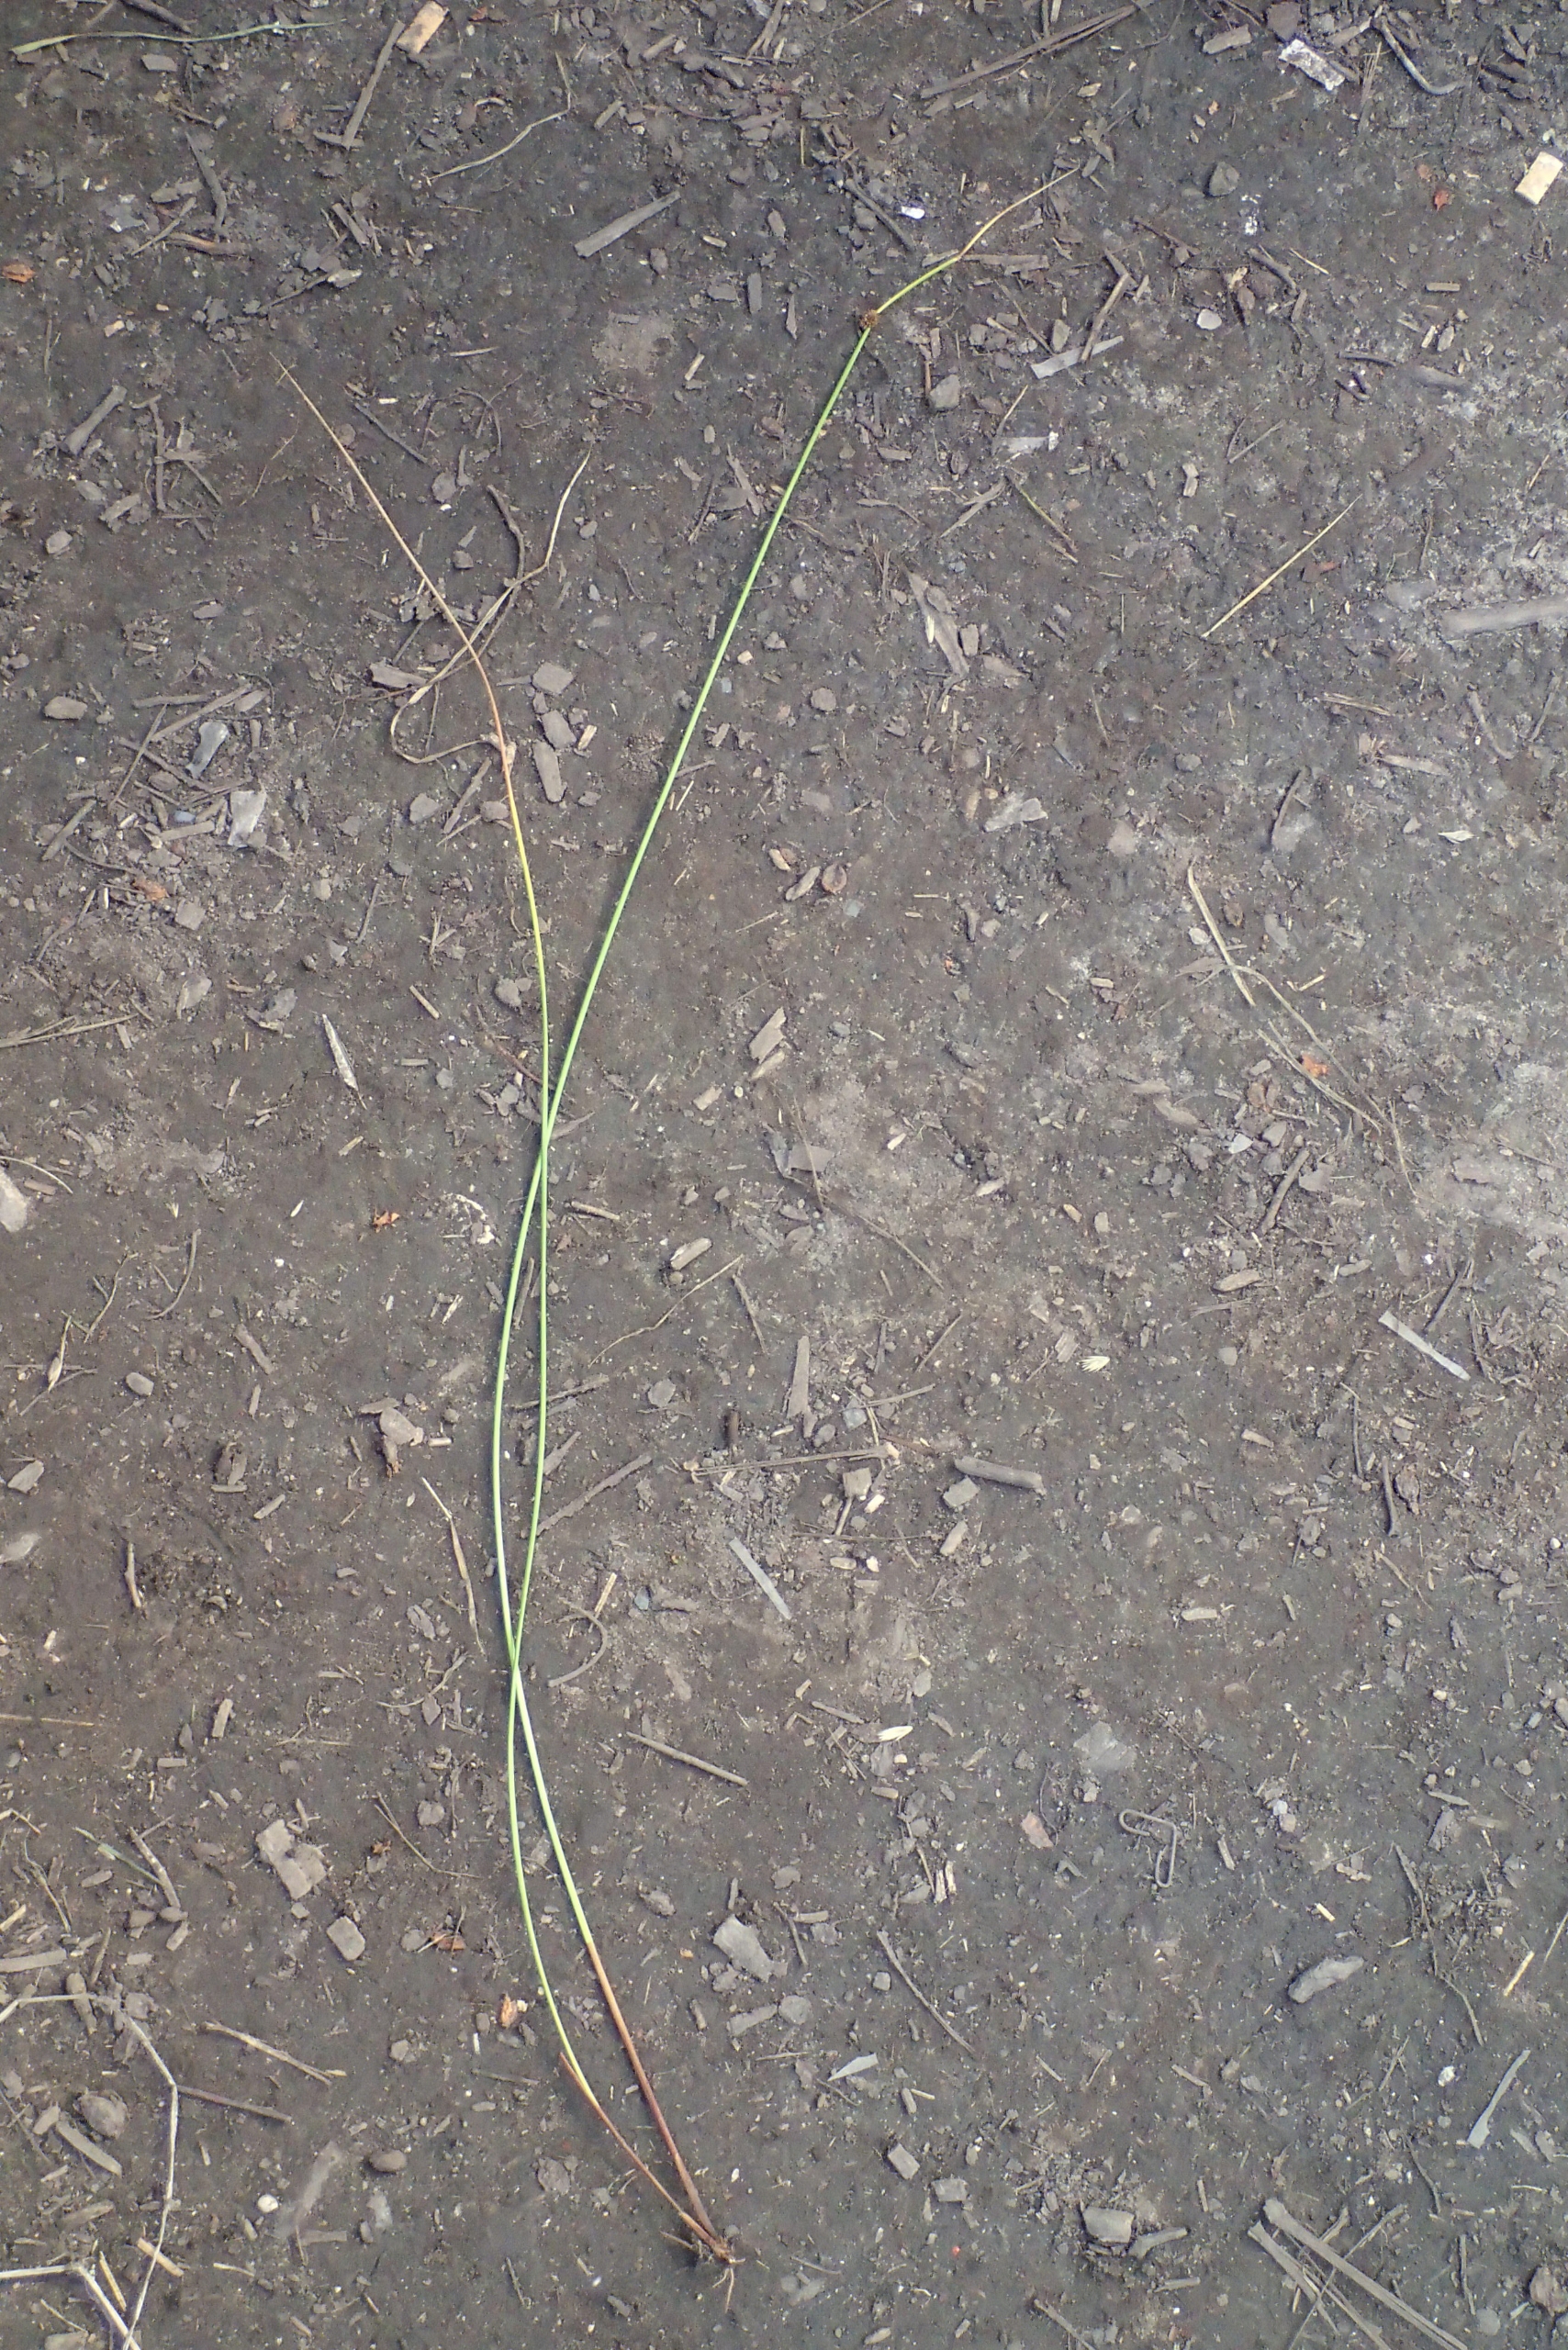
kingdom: Plantae
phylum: Tracheophyta
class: Liliopsida
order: Poales
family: Juncaceae
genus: Juncus
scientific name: Juncus conglomeratus
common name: Knop-siv
